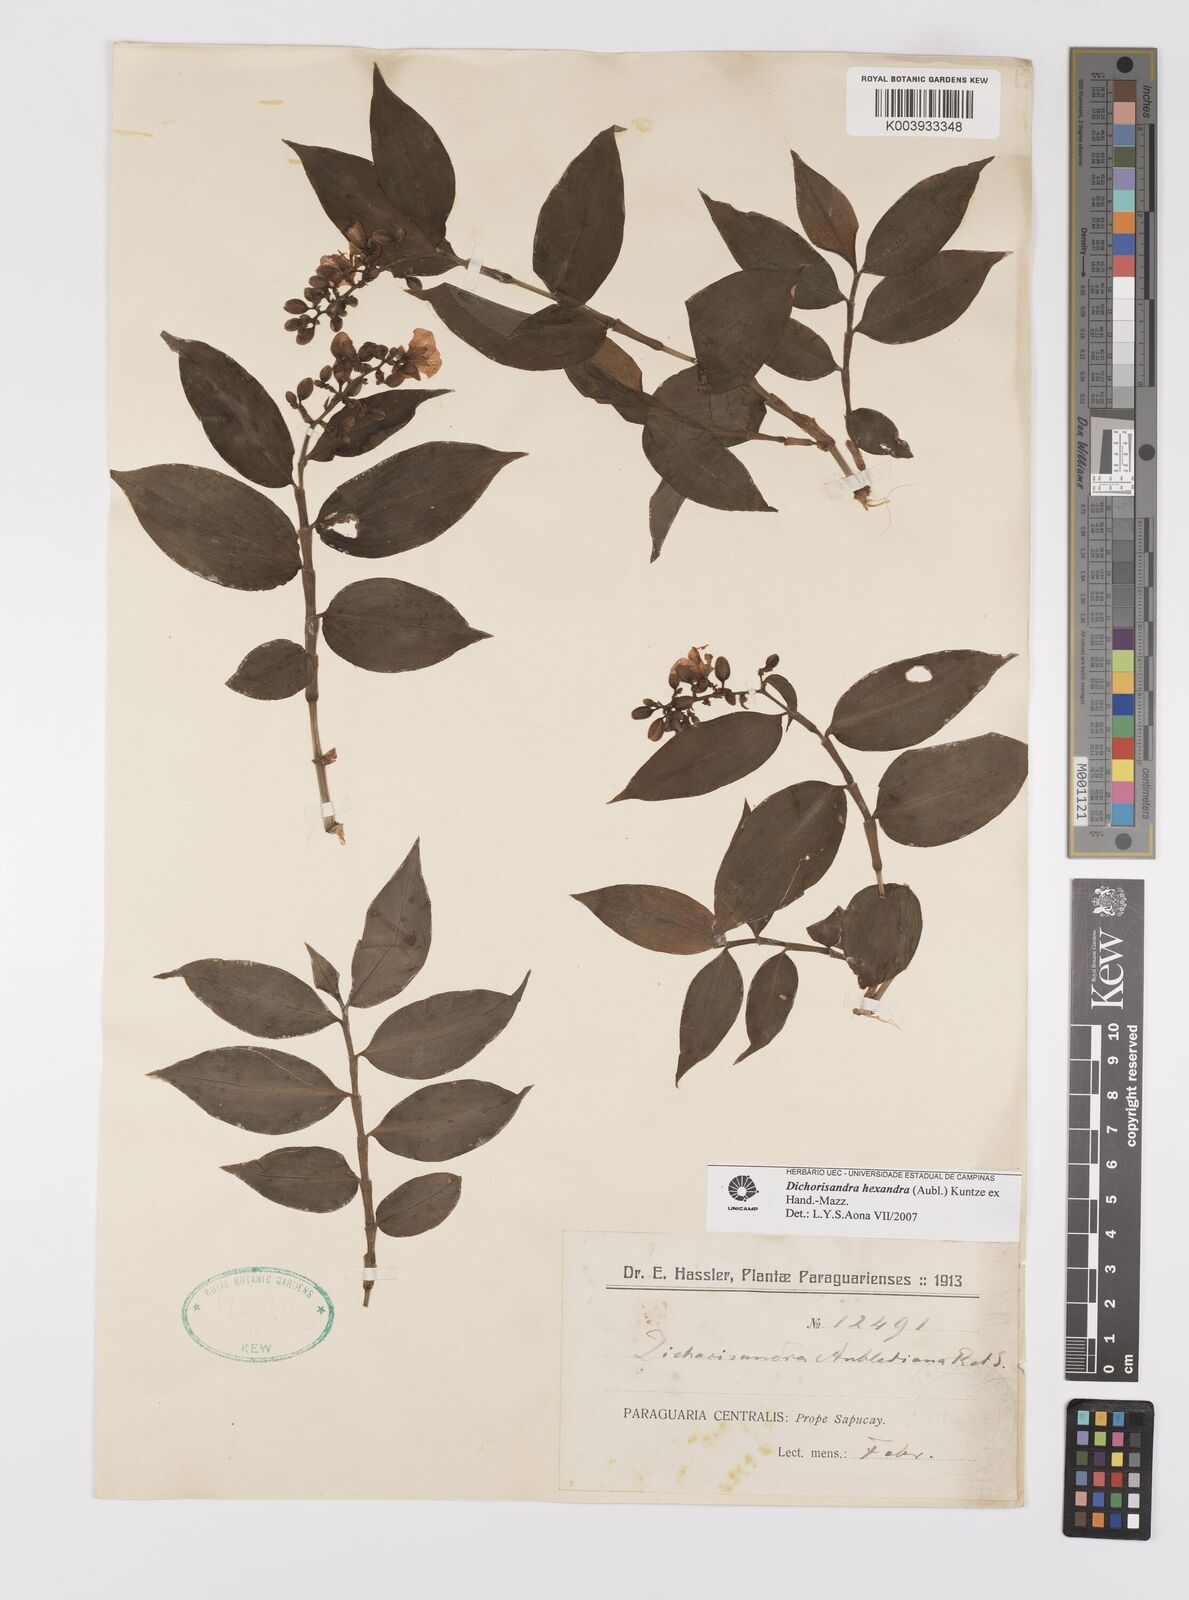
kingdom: Plantae
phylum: Tracheophyta
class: Liliopsida
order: Commelinales
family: Commelinaceae
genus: Dichorisandra
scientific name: Dichorisandra hexandra
